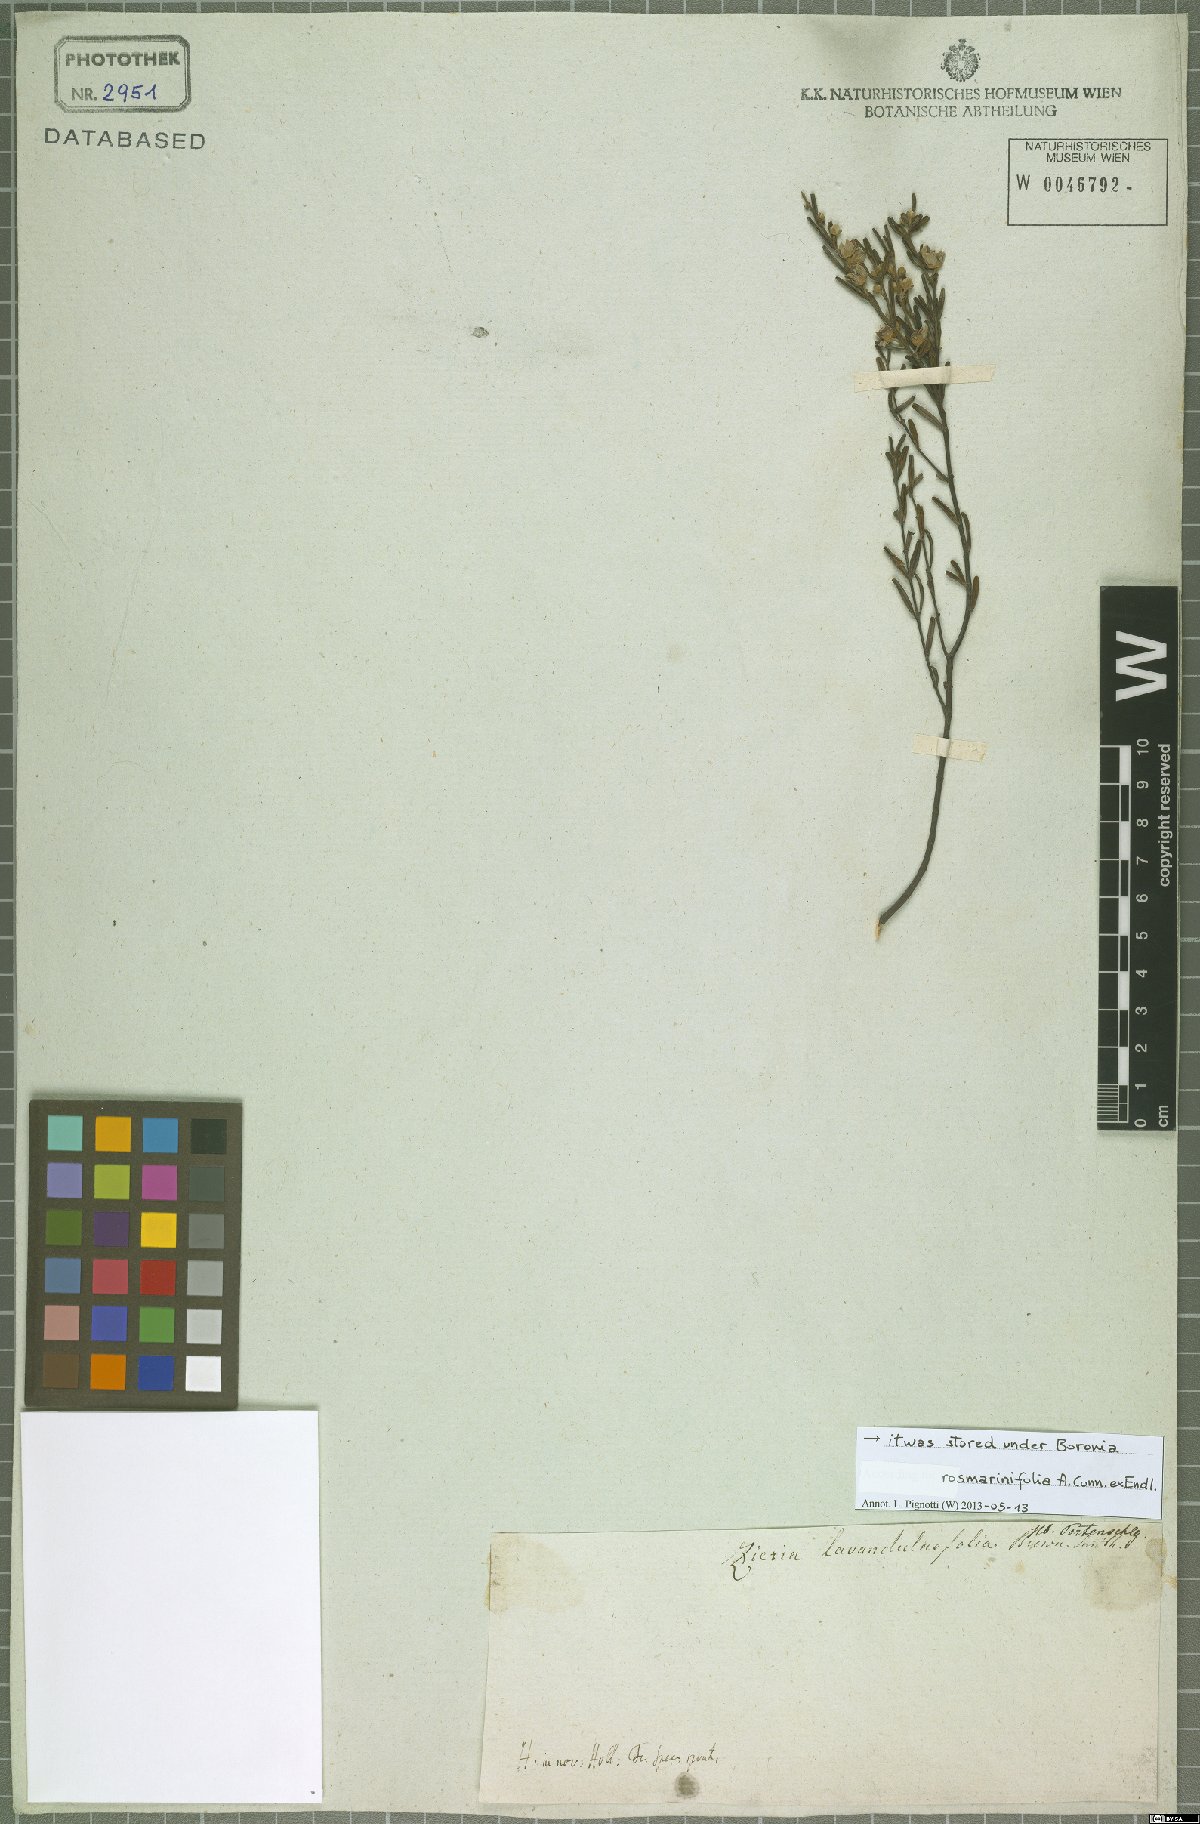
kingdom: Plantae
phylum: Tracheophyta
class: Magnoliopsida
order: Sapindales
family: Rutaceae
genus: Boronia
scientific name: Boronia rosmarinifolia
